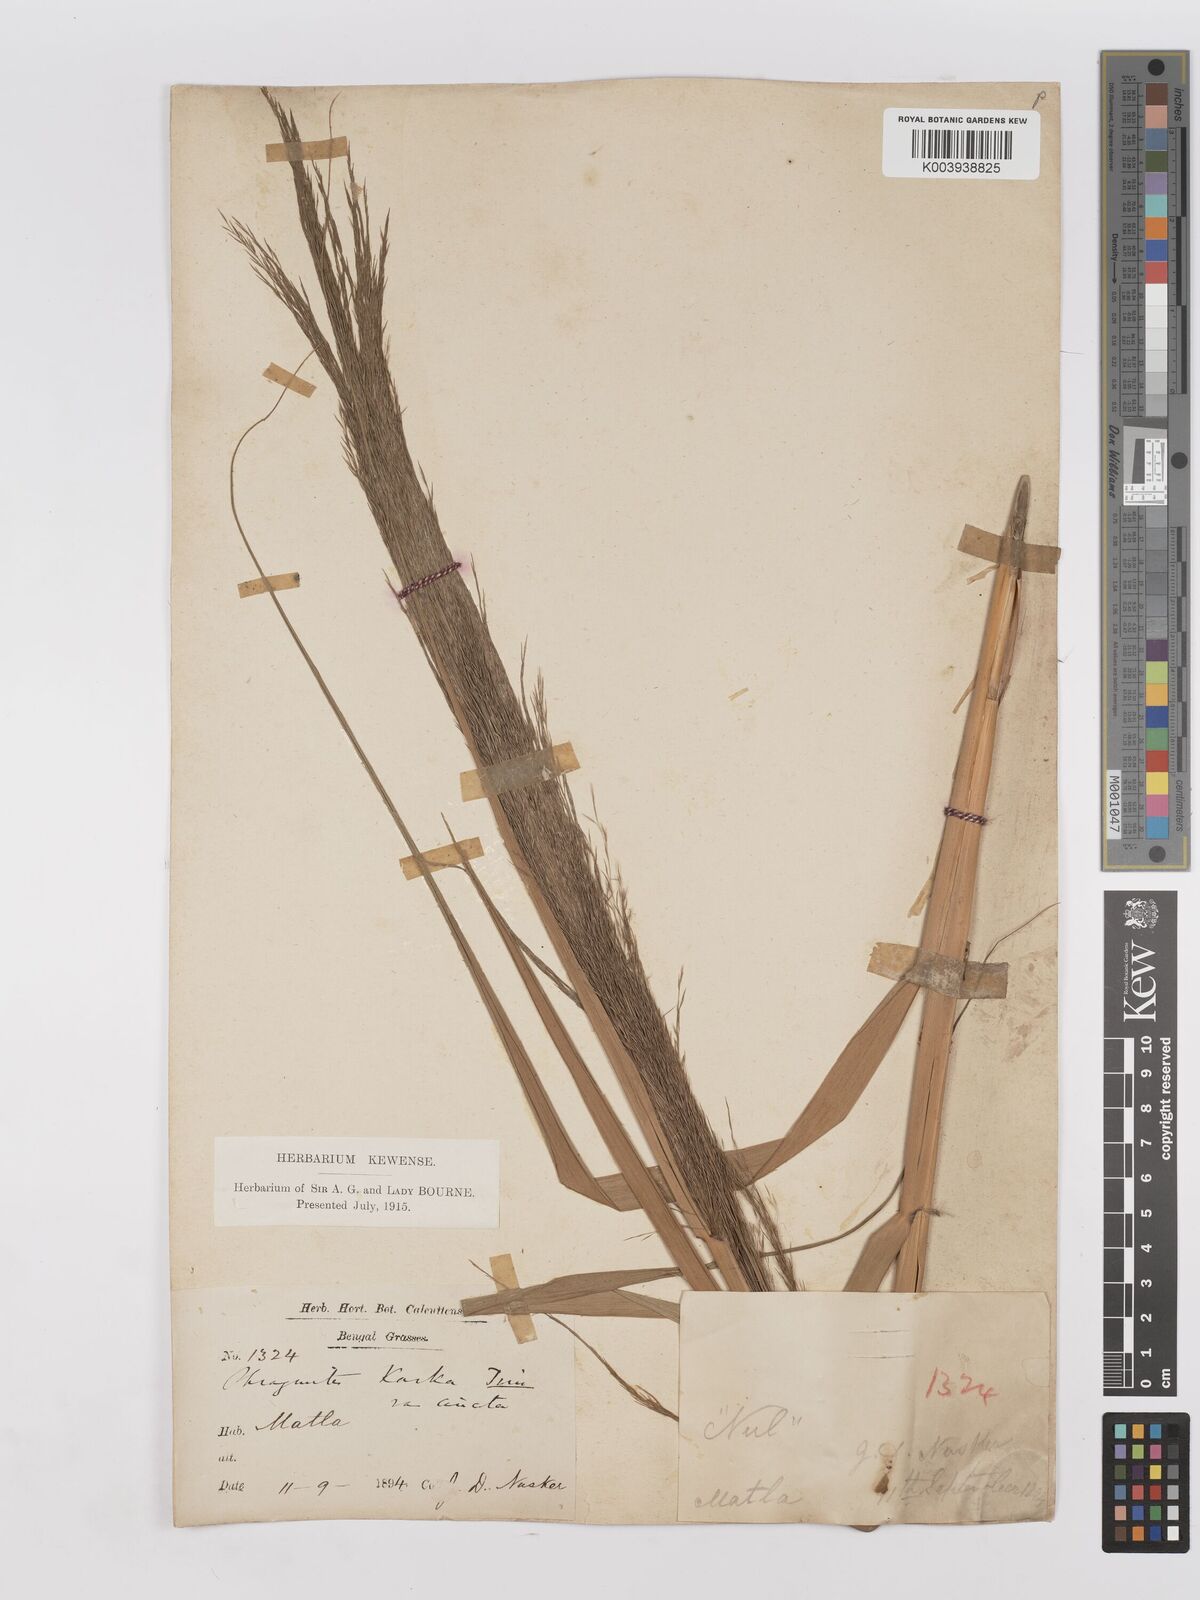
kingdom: Plantae
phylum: Tracheophyta
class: Liliopsida
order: Poales
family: Poaceae
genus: Phragmites
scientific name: Phragmites karka
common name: Tropical reed
